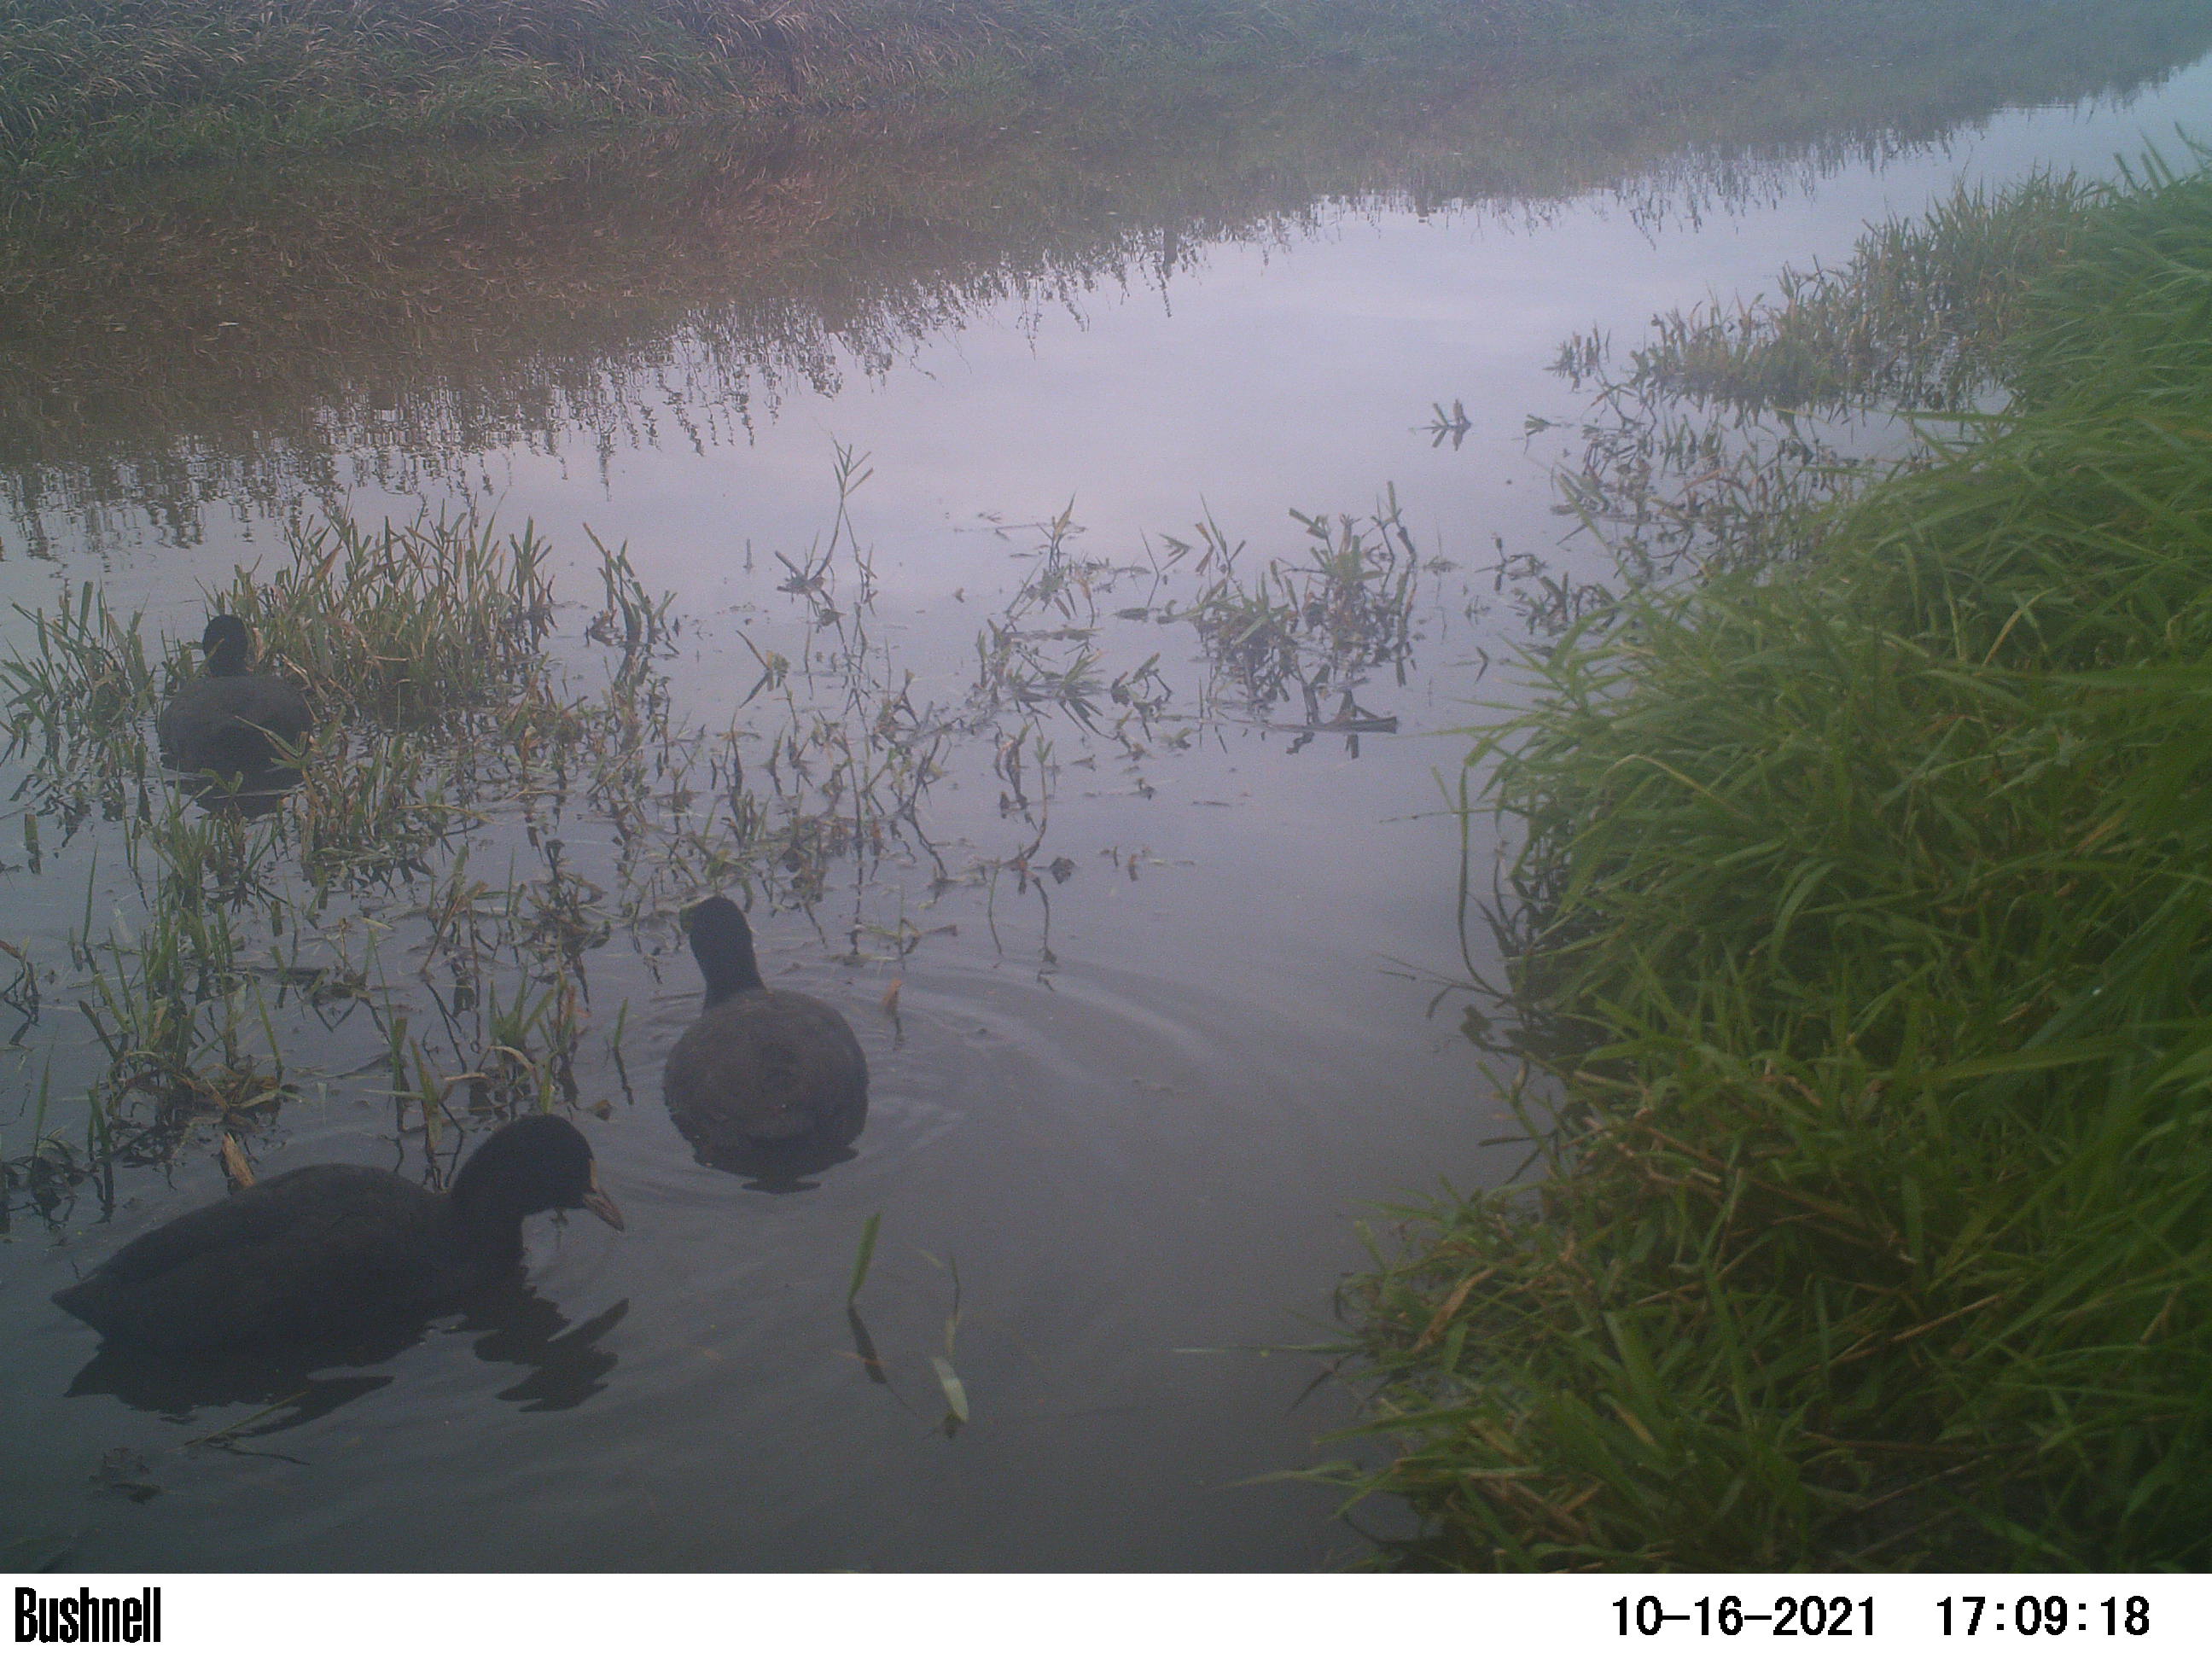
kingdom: Animalia
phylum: Chordata
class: Aves
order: Gruiformes
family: Rallidae
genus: Fulica
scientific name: Fulica atra
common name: Eurasian coot
